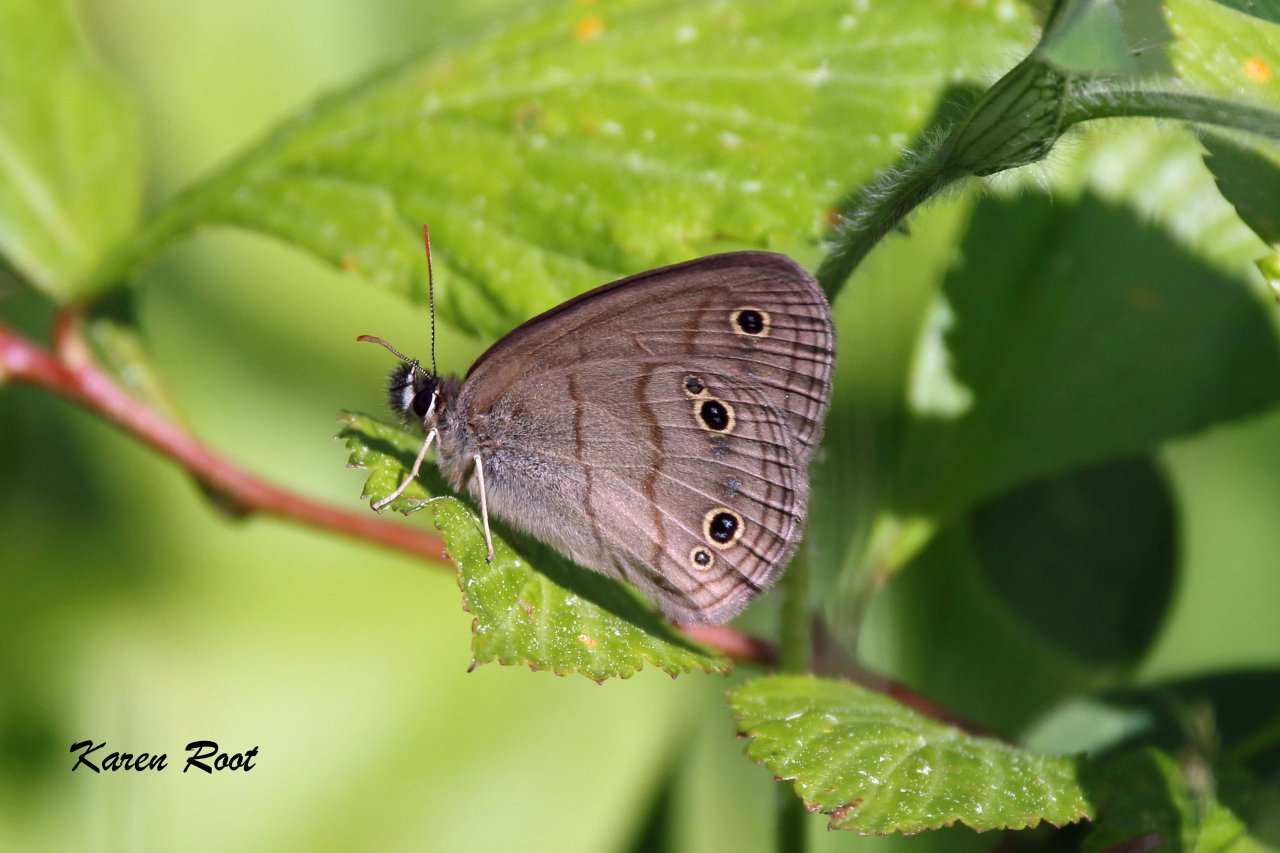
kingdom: Animalia
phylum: Arthropoda
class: Insecta
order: Lepidoptera
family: Nymphalidae
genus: Euptychia
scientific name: Euptychia cymela
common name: Little Wood Satyr
